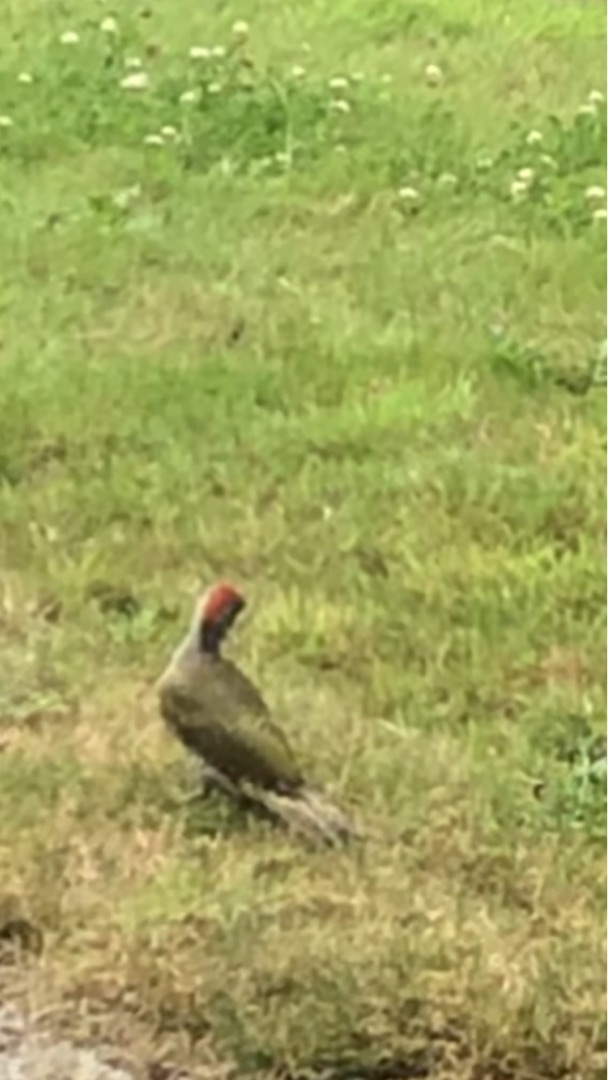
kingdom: Animalia
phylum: Chordata
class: Aves
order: Piciformes
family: Picidae
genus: Picus
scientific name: Picus viridis
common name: Grønspætte
